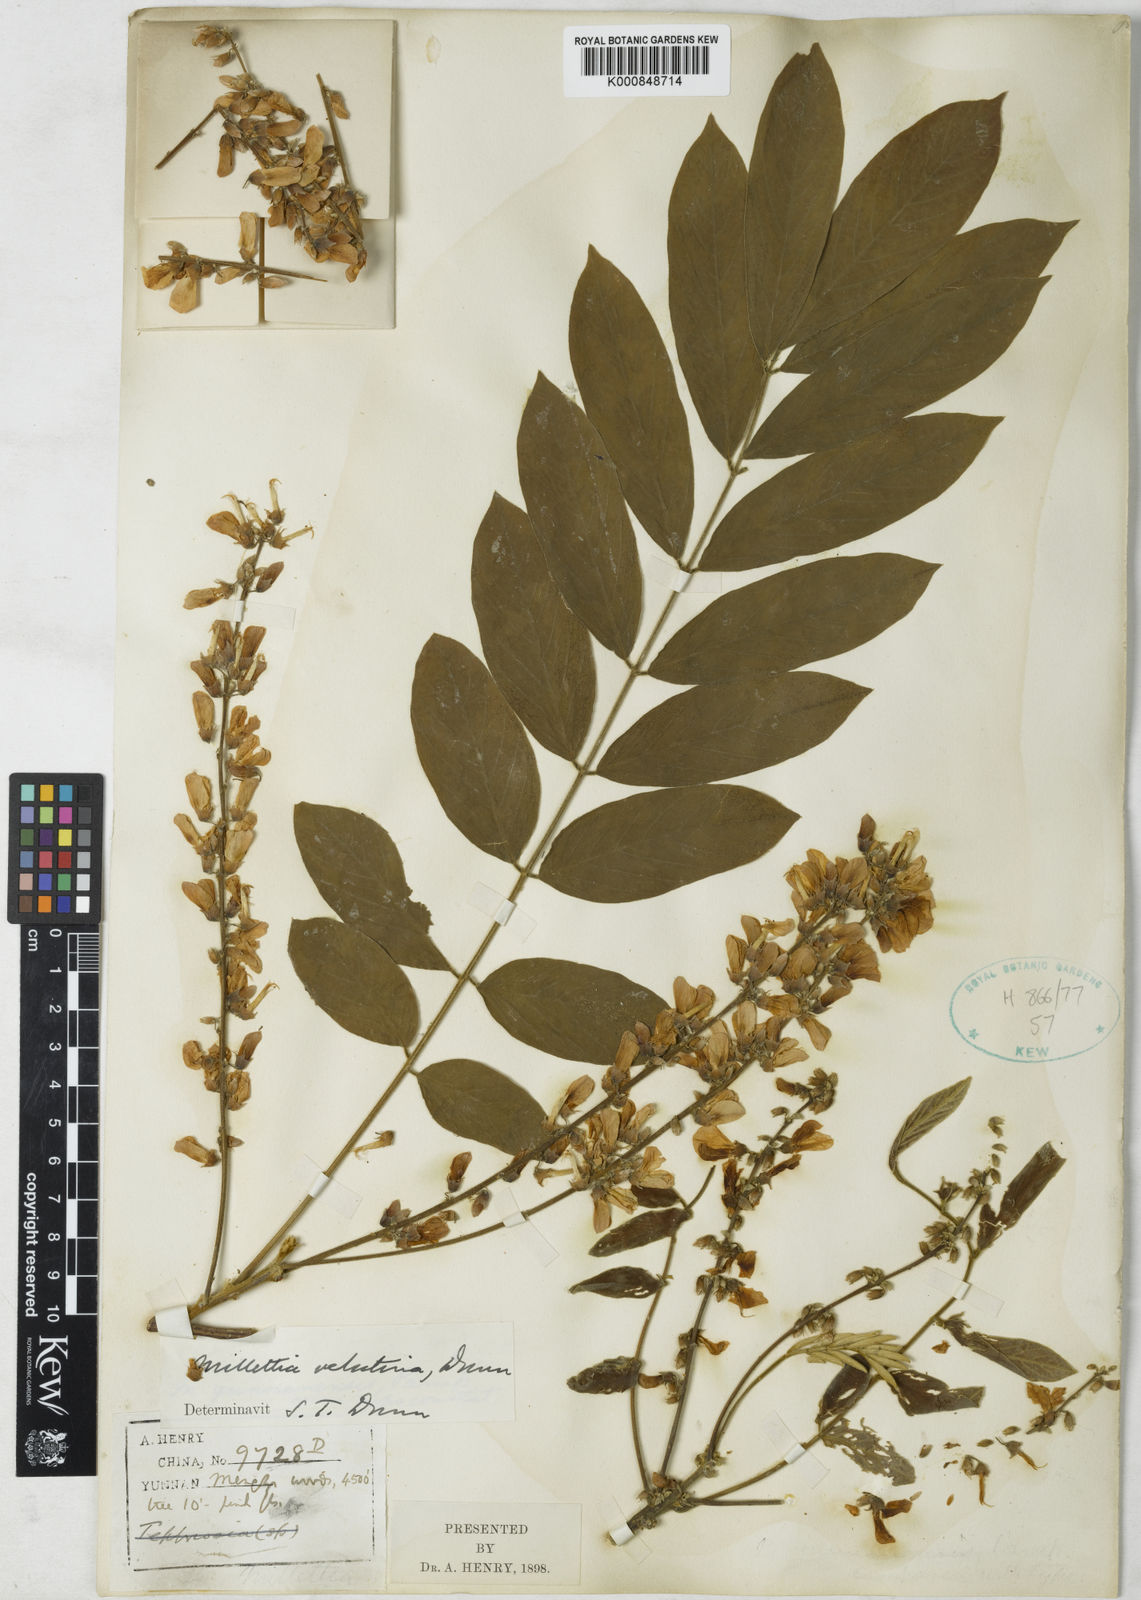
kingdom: Plantae
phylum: Tracheophyta
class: Magnoliopsida
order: Fabales
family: Fabaceae
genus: Millettia
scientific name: Millettia velutina
